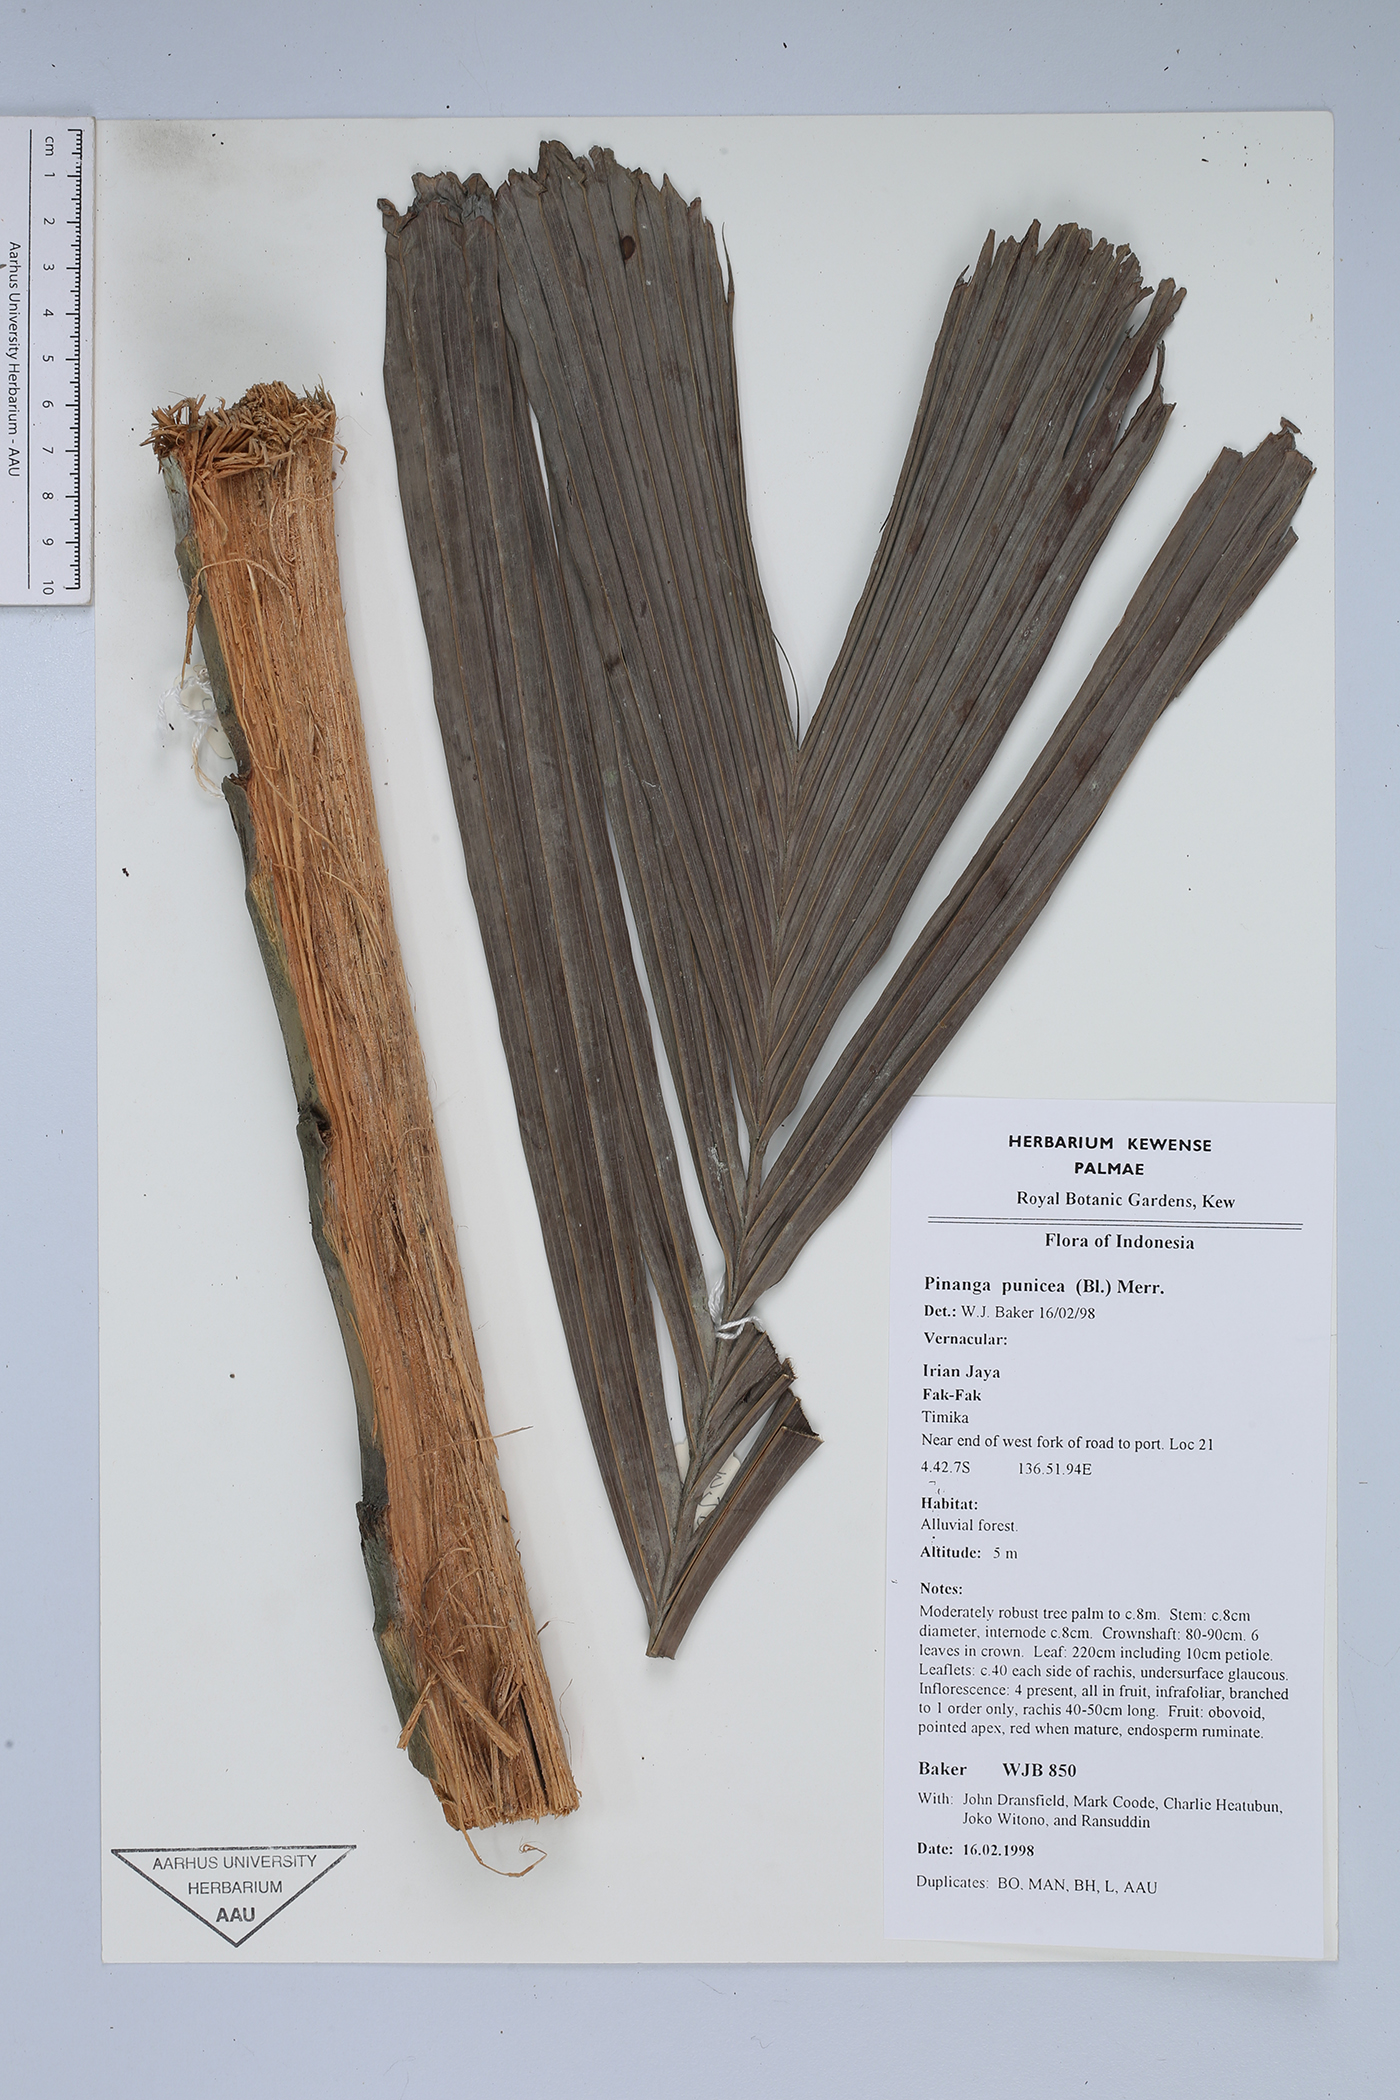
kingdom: Plantae
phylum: Tracheophyta
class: Liliopsida
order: Arecales
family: Arecaceae
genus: Pinanga
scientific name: Pinanga rumphiana
